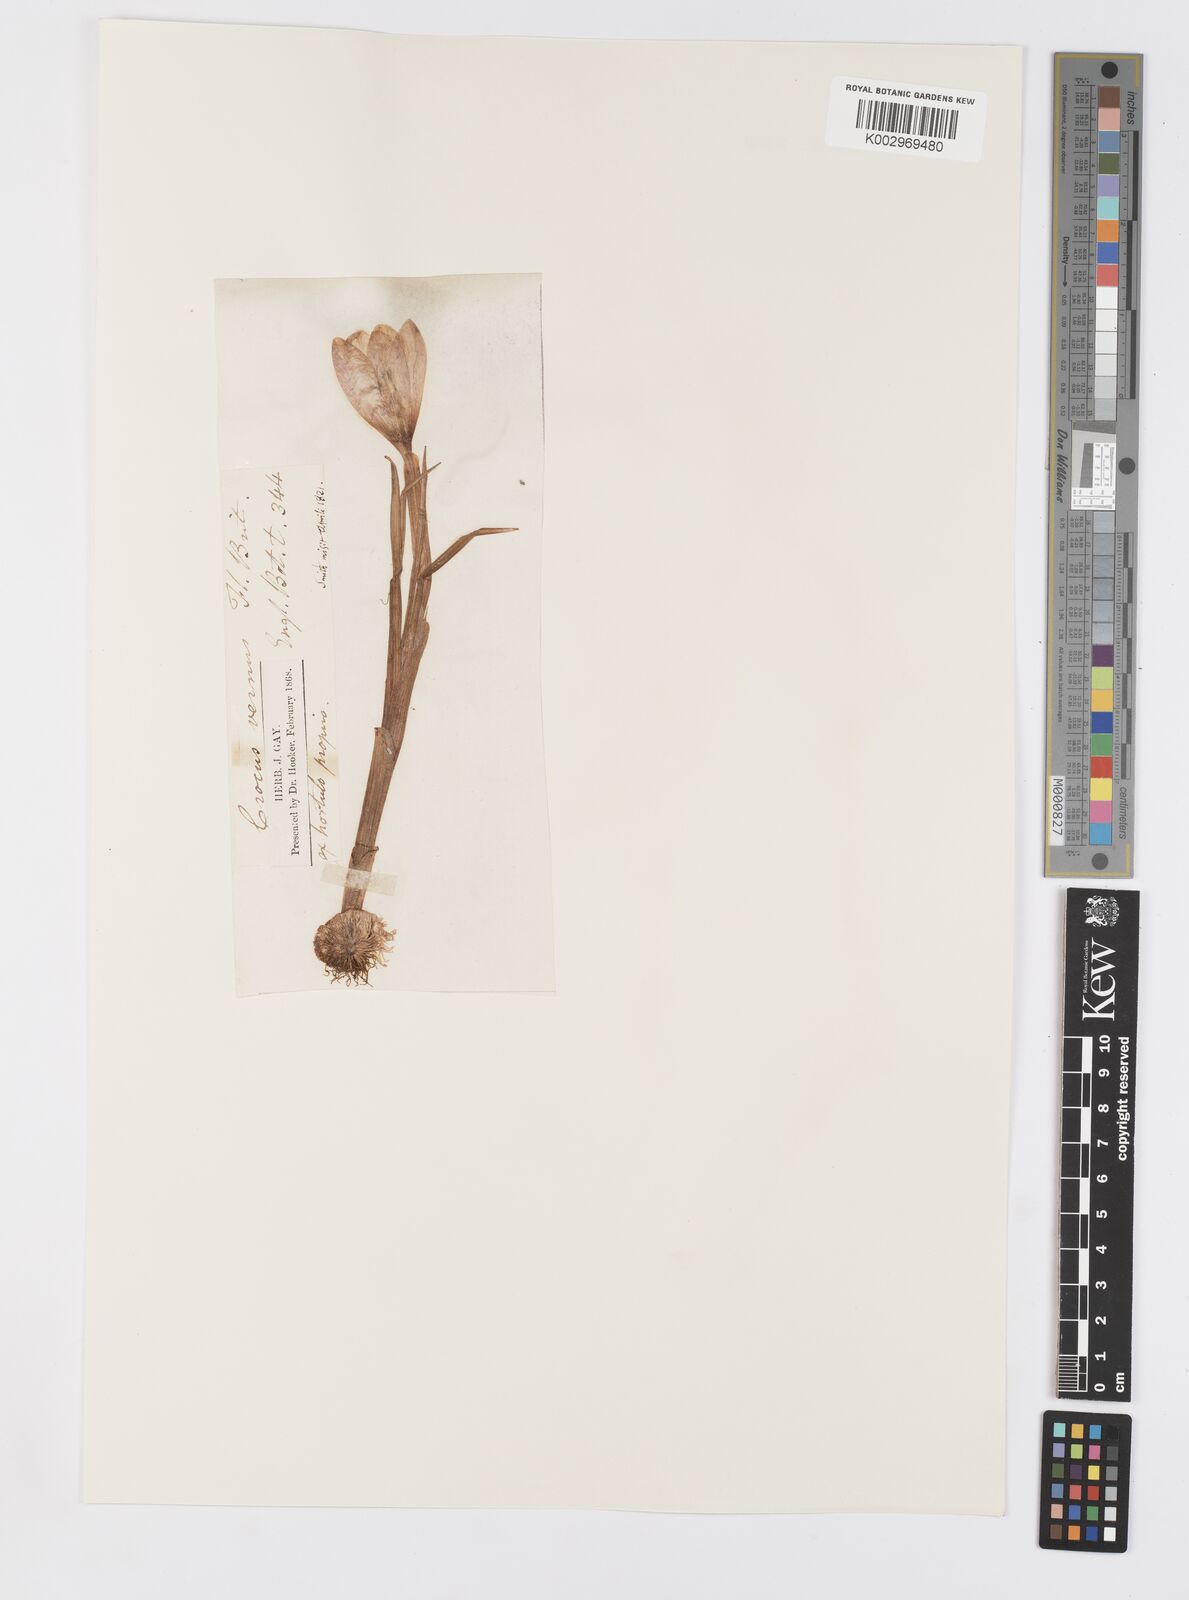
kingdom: Plantae
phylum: Tracheophyta
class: Liliopsida
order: Asparagales
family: Iridaceae
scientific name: Iridaceae
